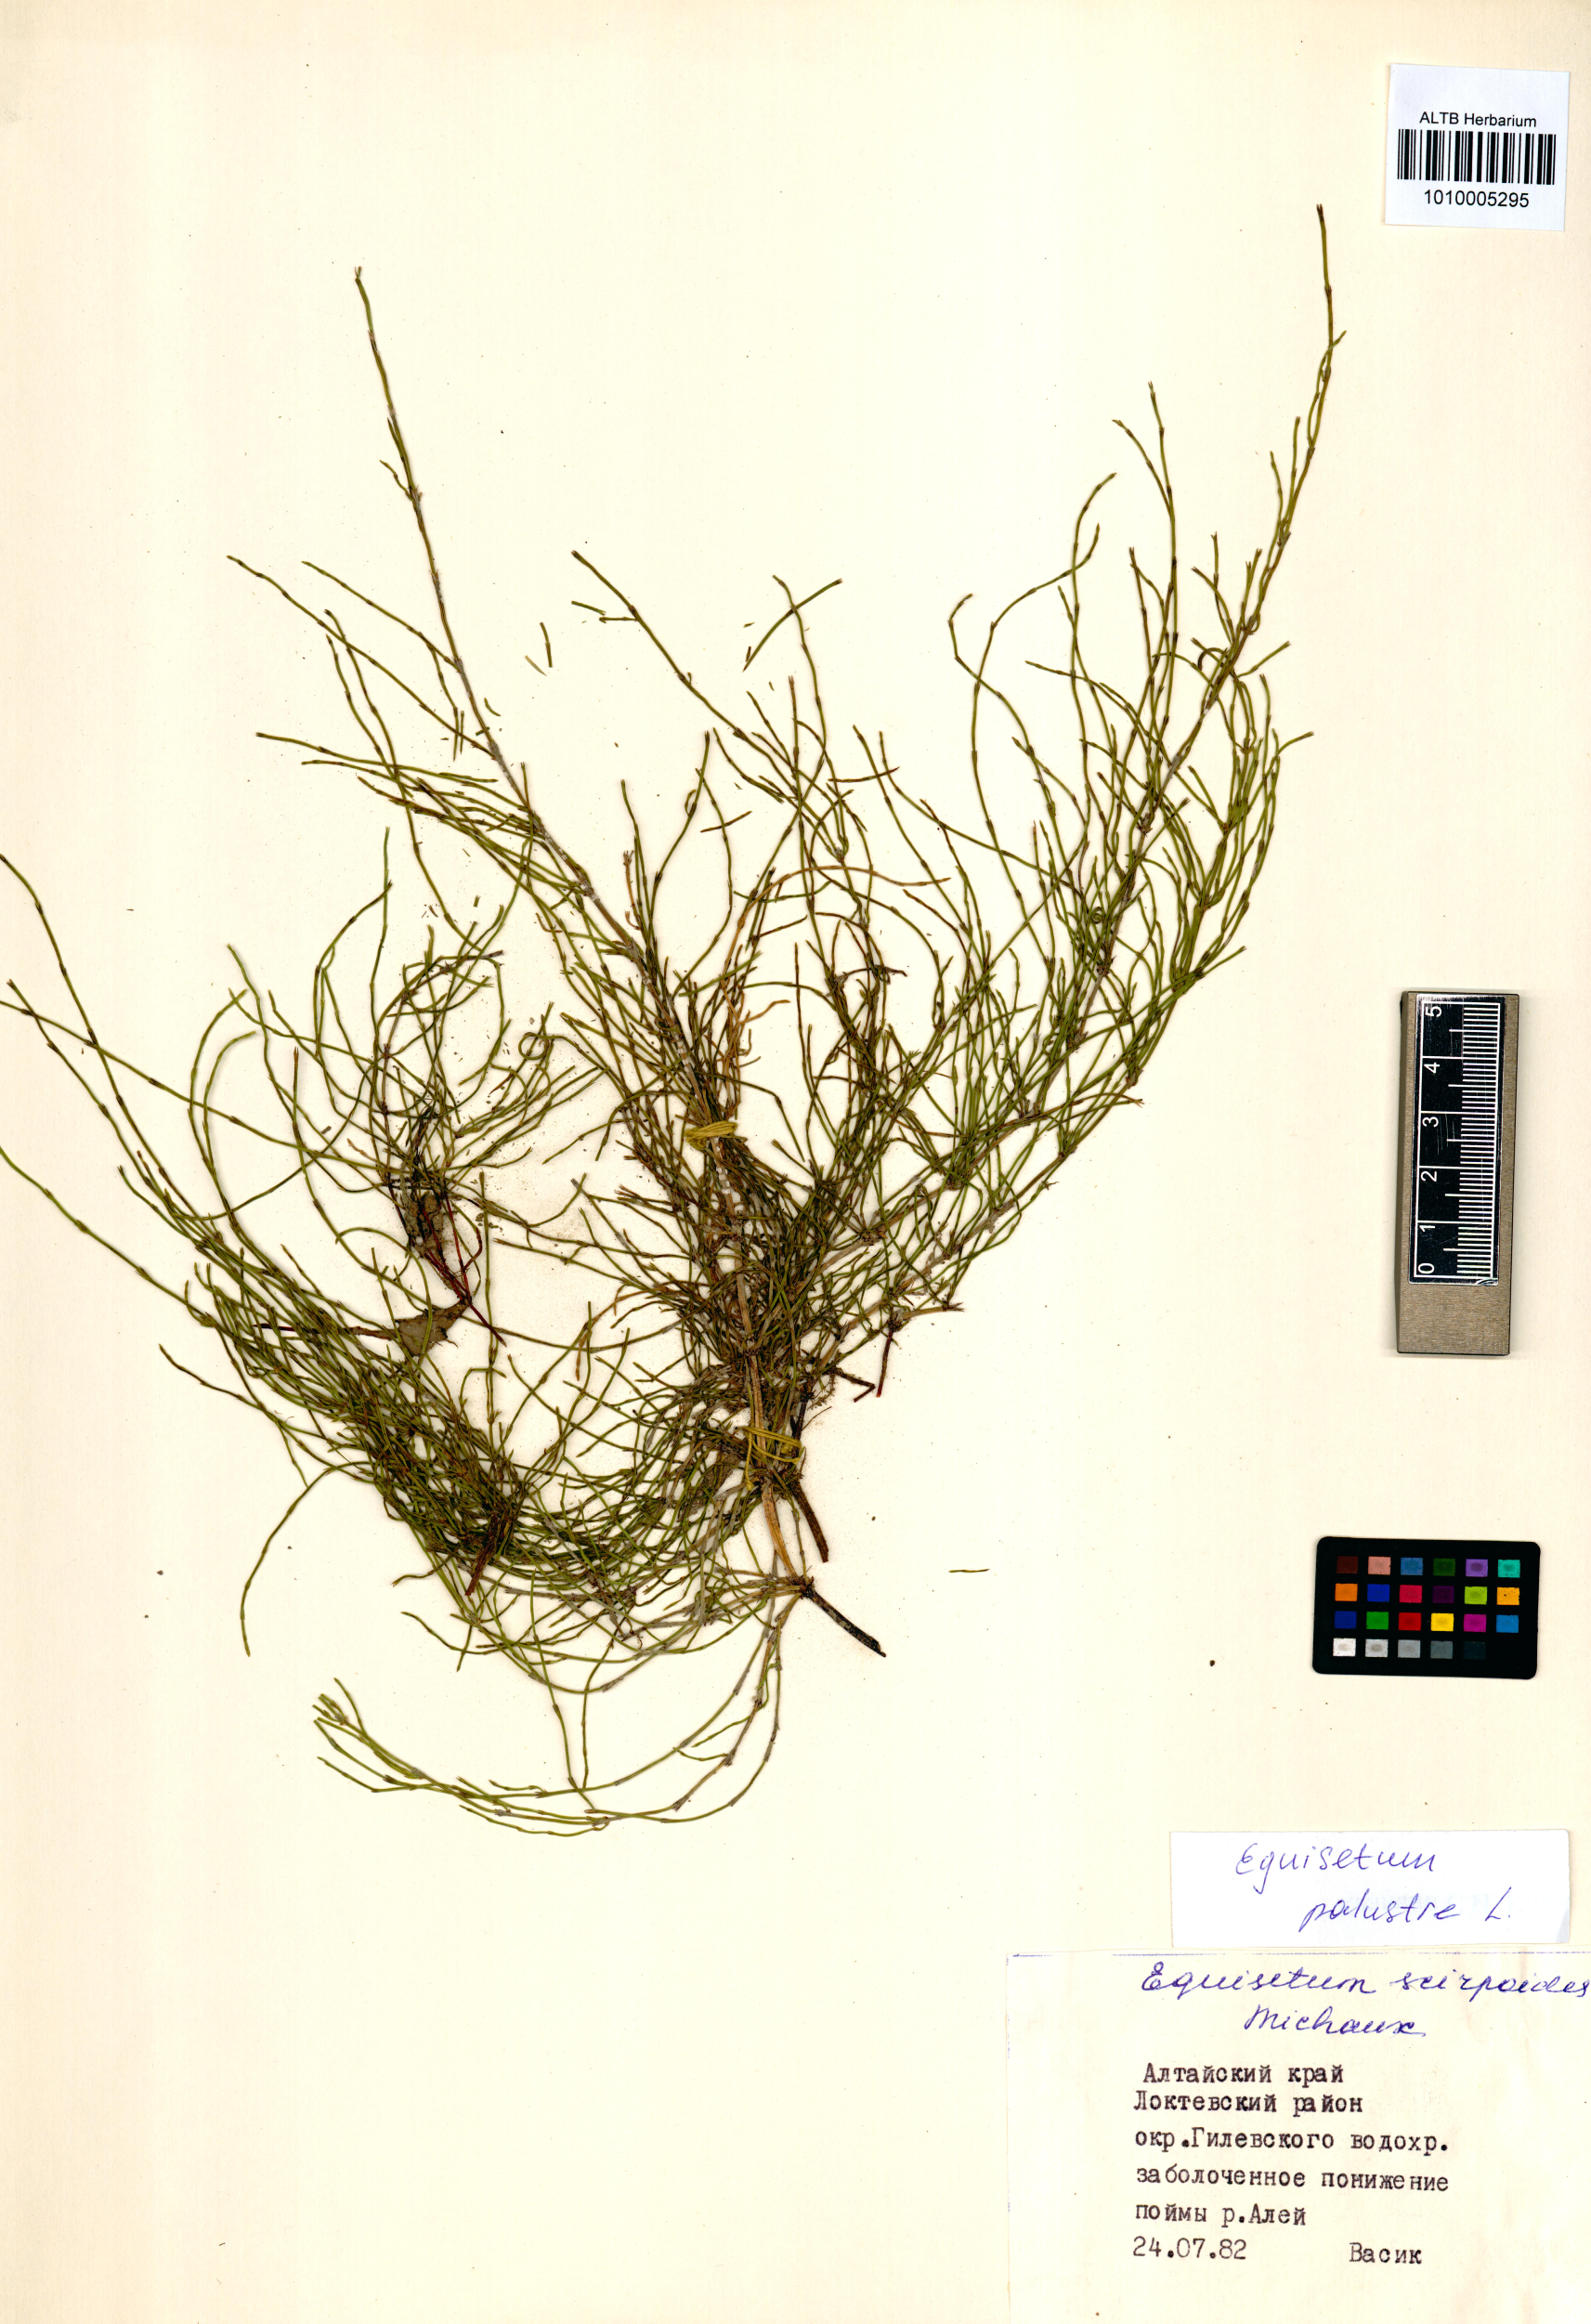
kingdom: Plantae
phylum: Tracheophyta
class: Polypodiopsida
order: Equisetales
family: Equisetaceae
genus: Equisetum
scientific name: Equisetum pratense
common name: Meadow horsetail
